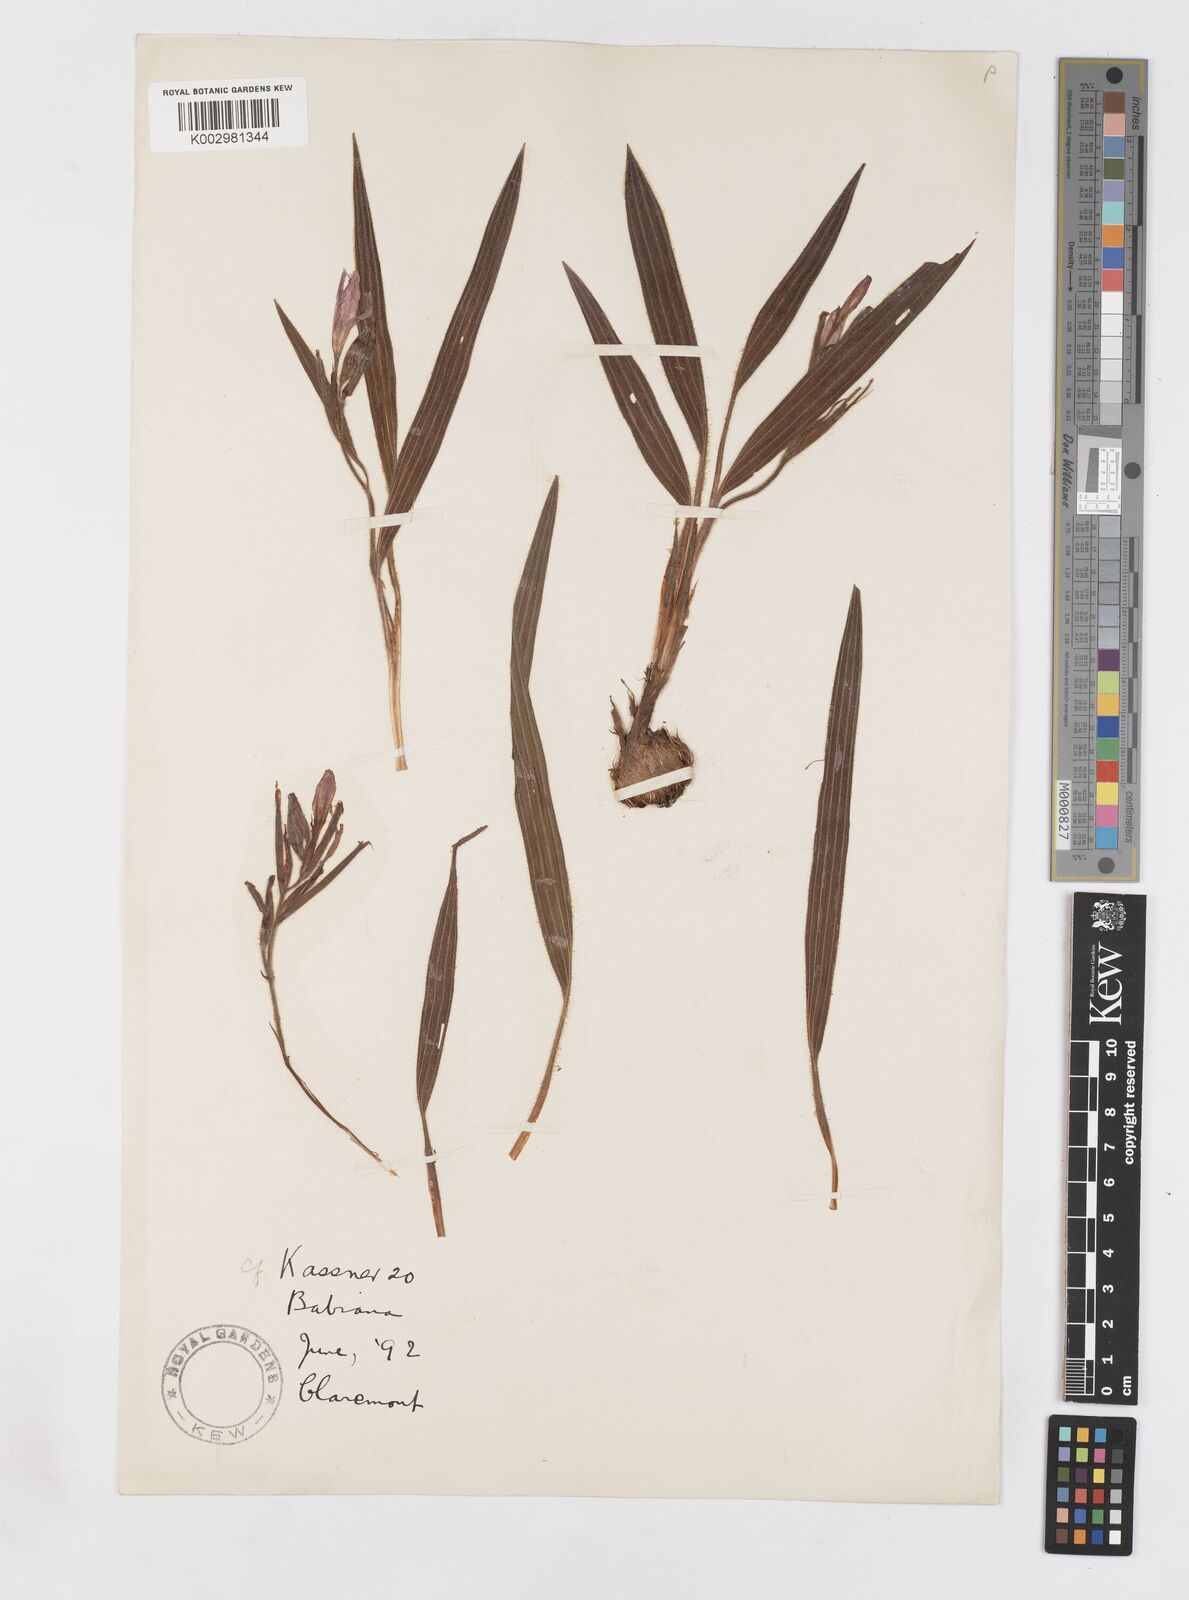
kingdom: Plantae
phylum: Tracheophyta
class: Liliopsida
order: Asparagales
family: Iridaceae
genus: Babiana
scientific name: Babiana
